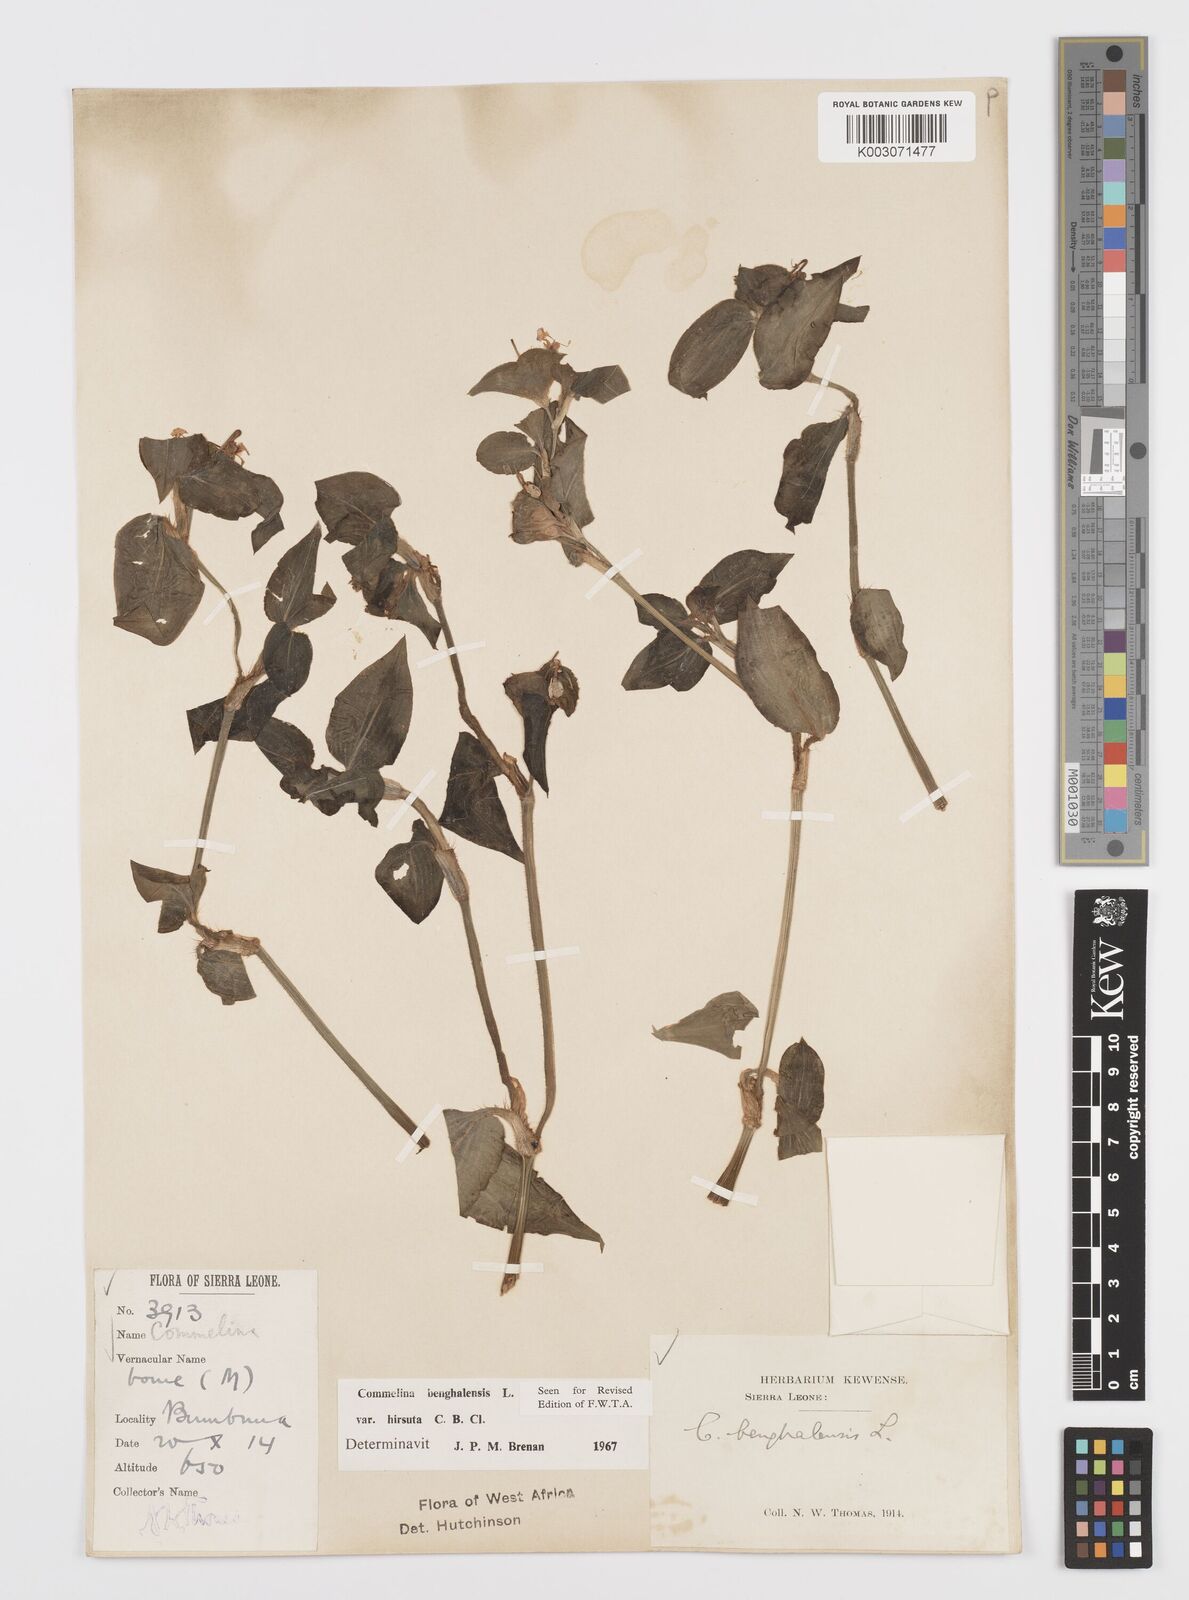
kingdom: Plantae
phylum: Tracheophyta
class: Liliopsida
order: Commelinales
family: Commelinaceae
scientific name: Commelinaceae
